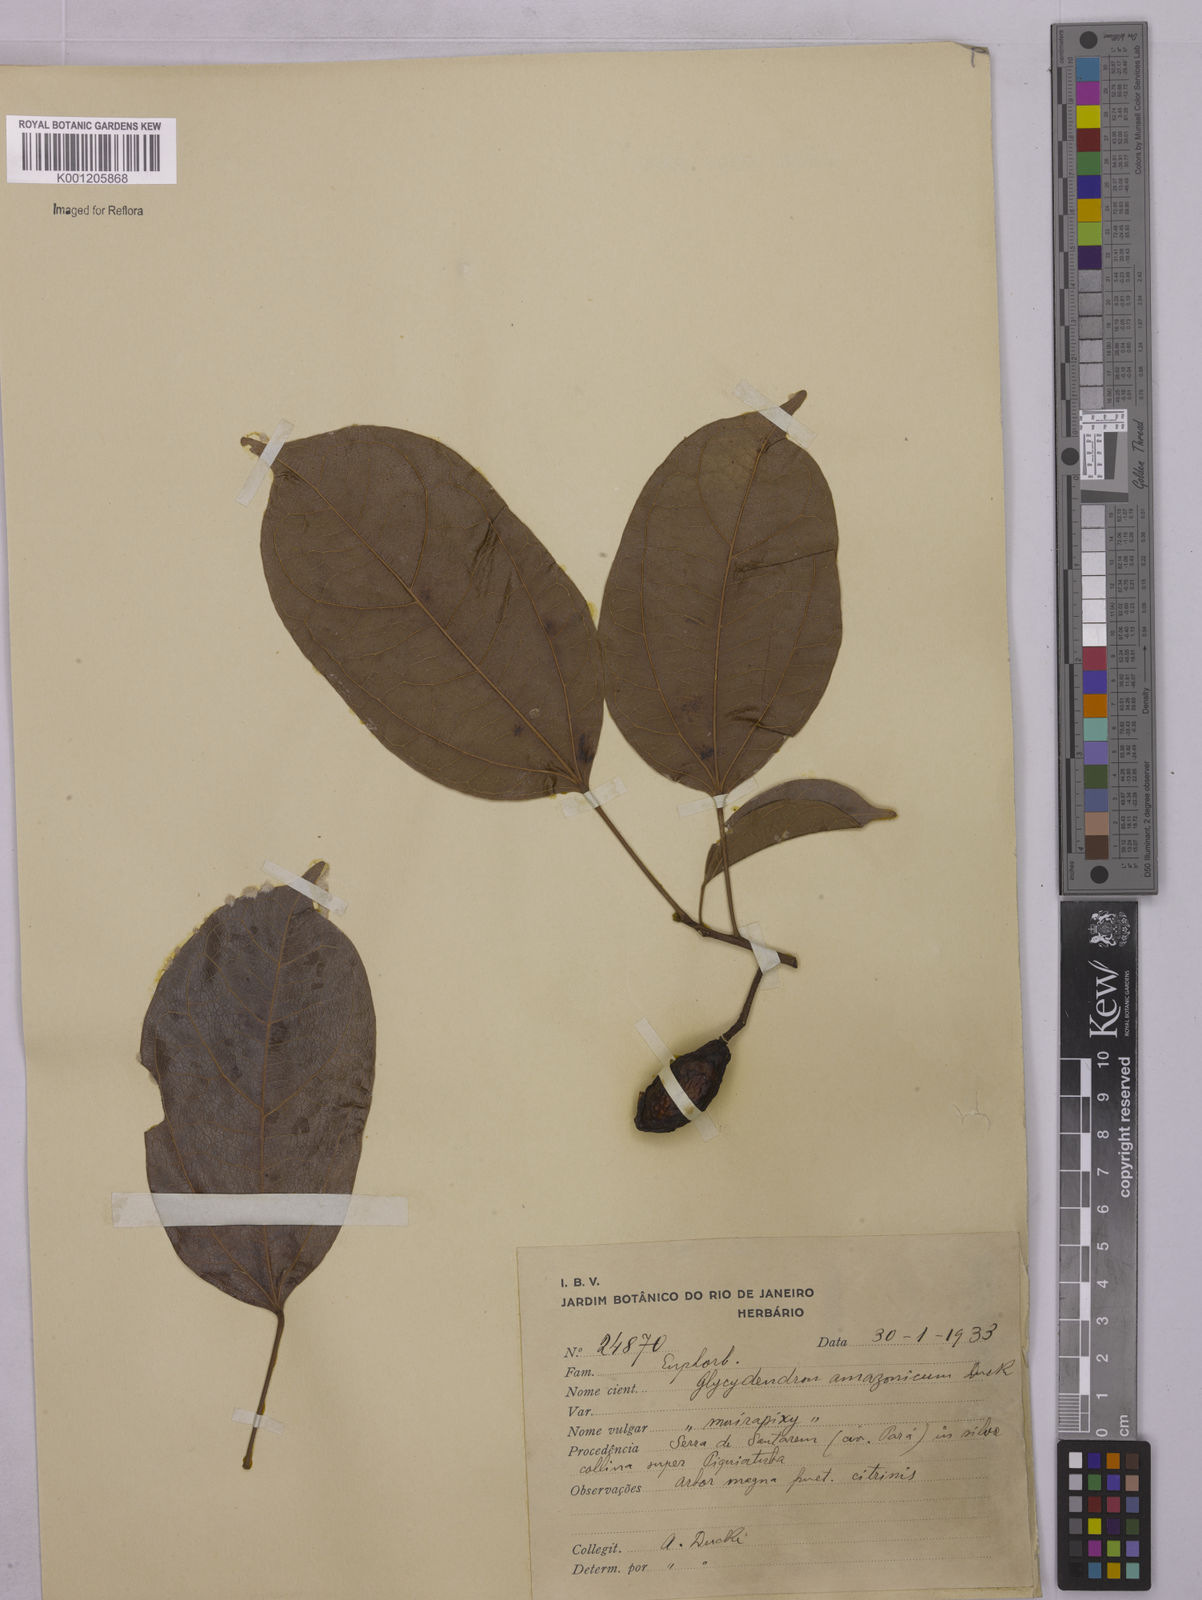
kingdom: Plantae
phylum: Tracheophyta
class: Magnoliopsida
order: Malpighiales
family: Euphorbiaceae
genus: Glycydendron
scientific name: Glycydendron amazonicum
